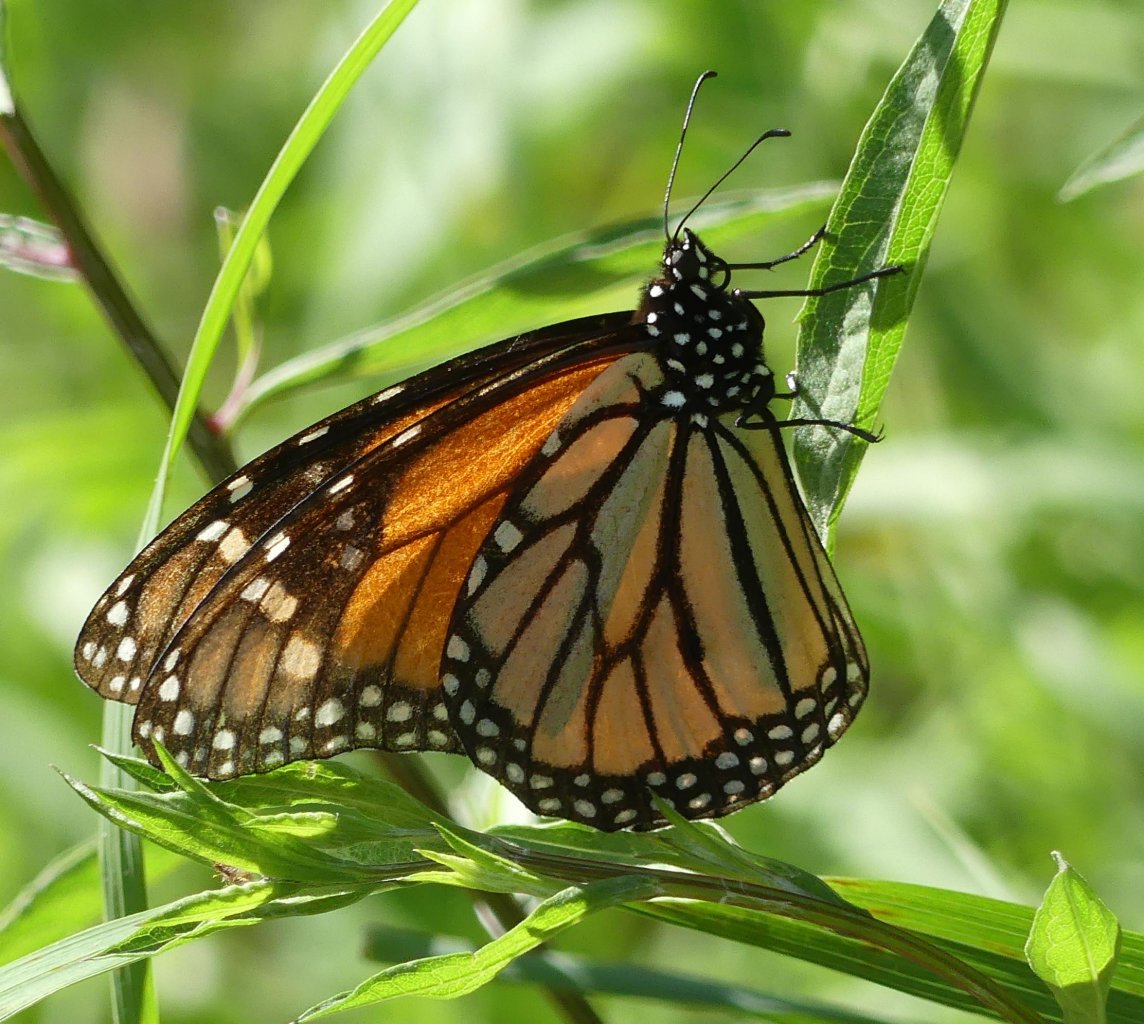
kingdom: Animalia
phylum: Arthropoda
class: Insecta
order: Lepidoptera
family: Nymphalidae
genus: Danaus
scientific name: Danaus plexippus
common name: Monarch
